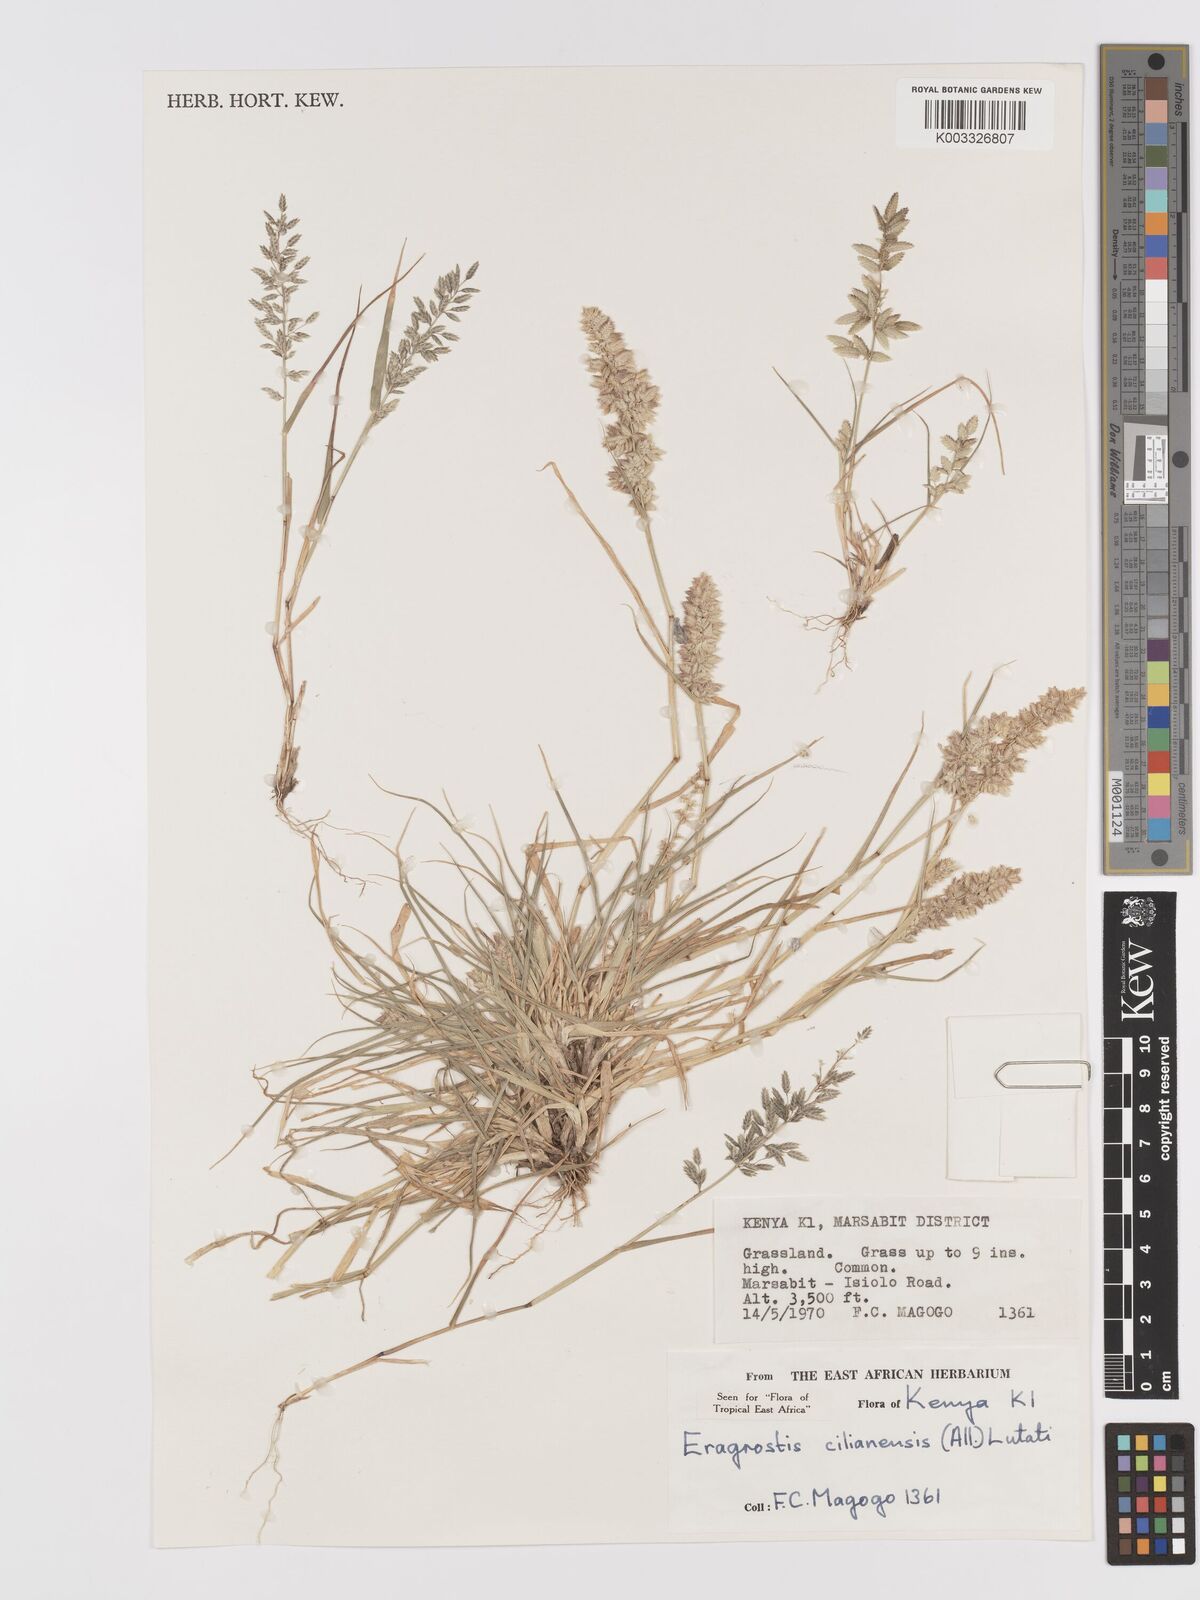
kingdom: Plantae
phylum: Tracheophyta
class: Liliopsida
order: Poales
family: Poaceae
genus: Eragrostis
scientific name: Eragrostis cilianensis
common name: Stinkgrass
